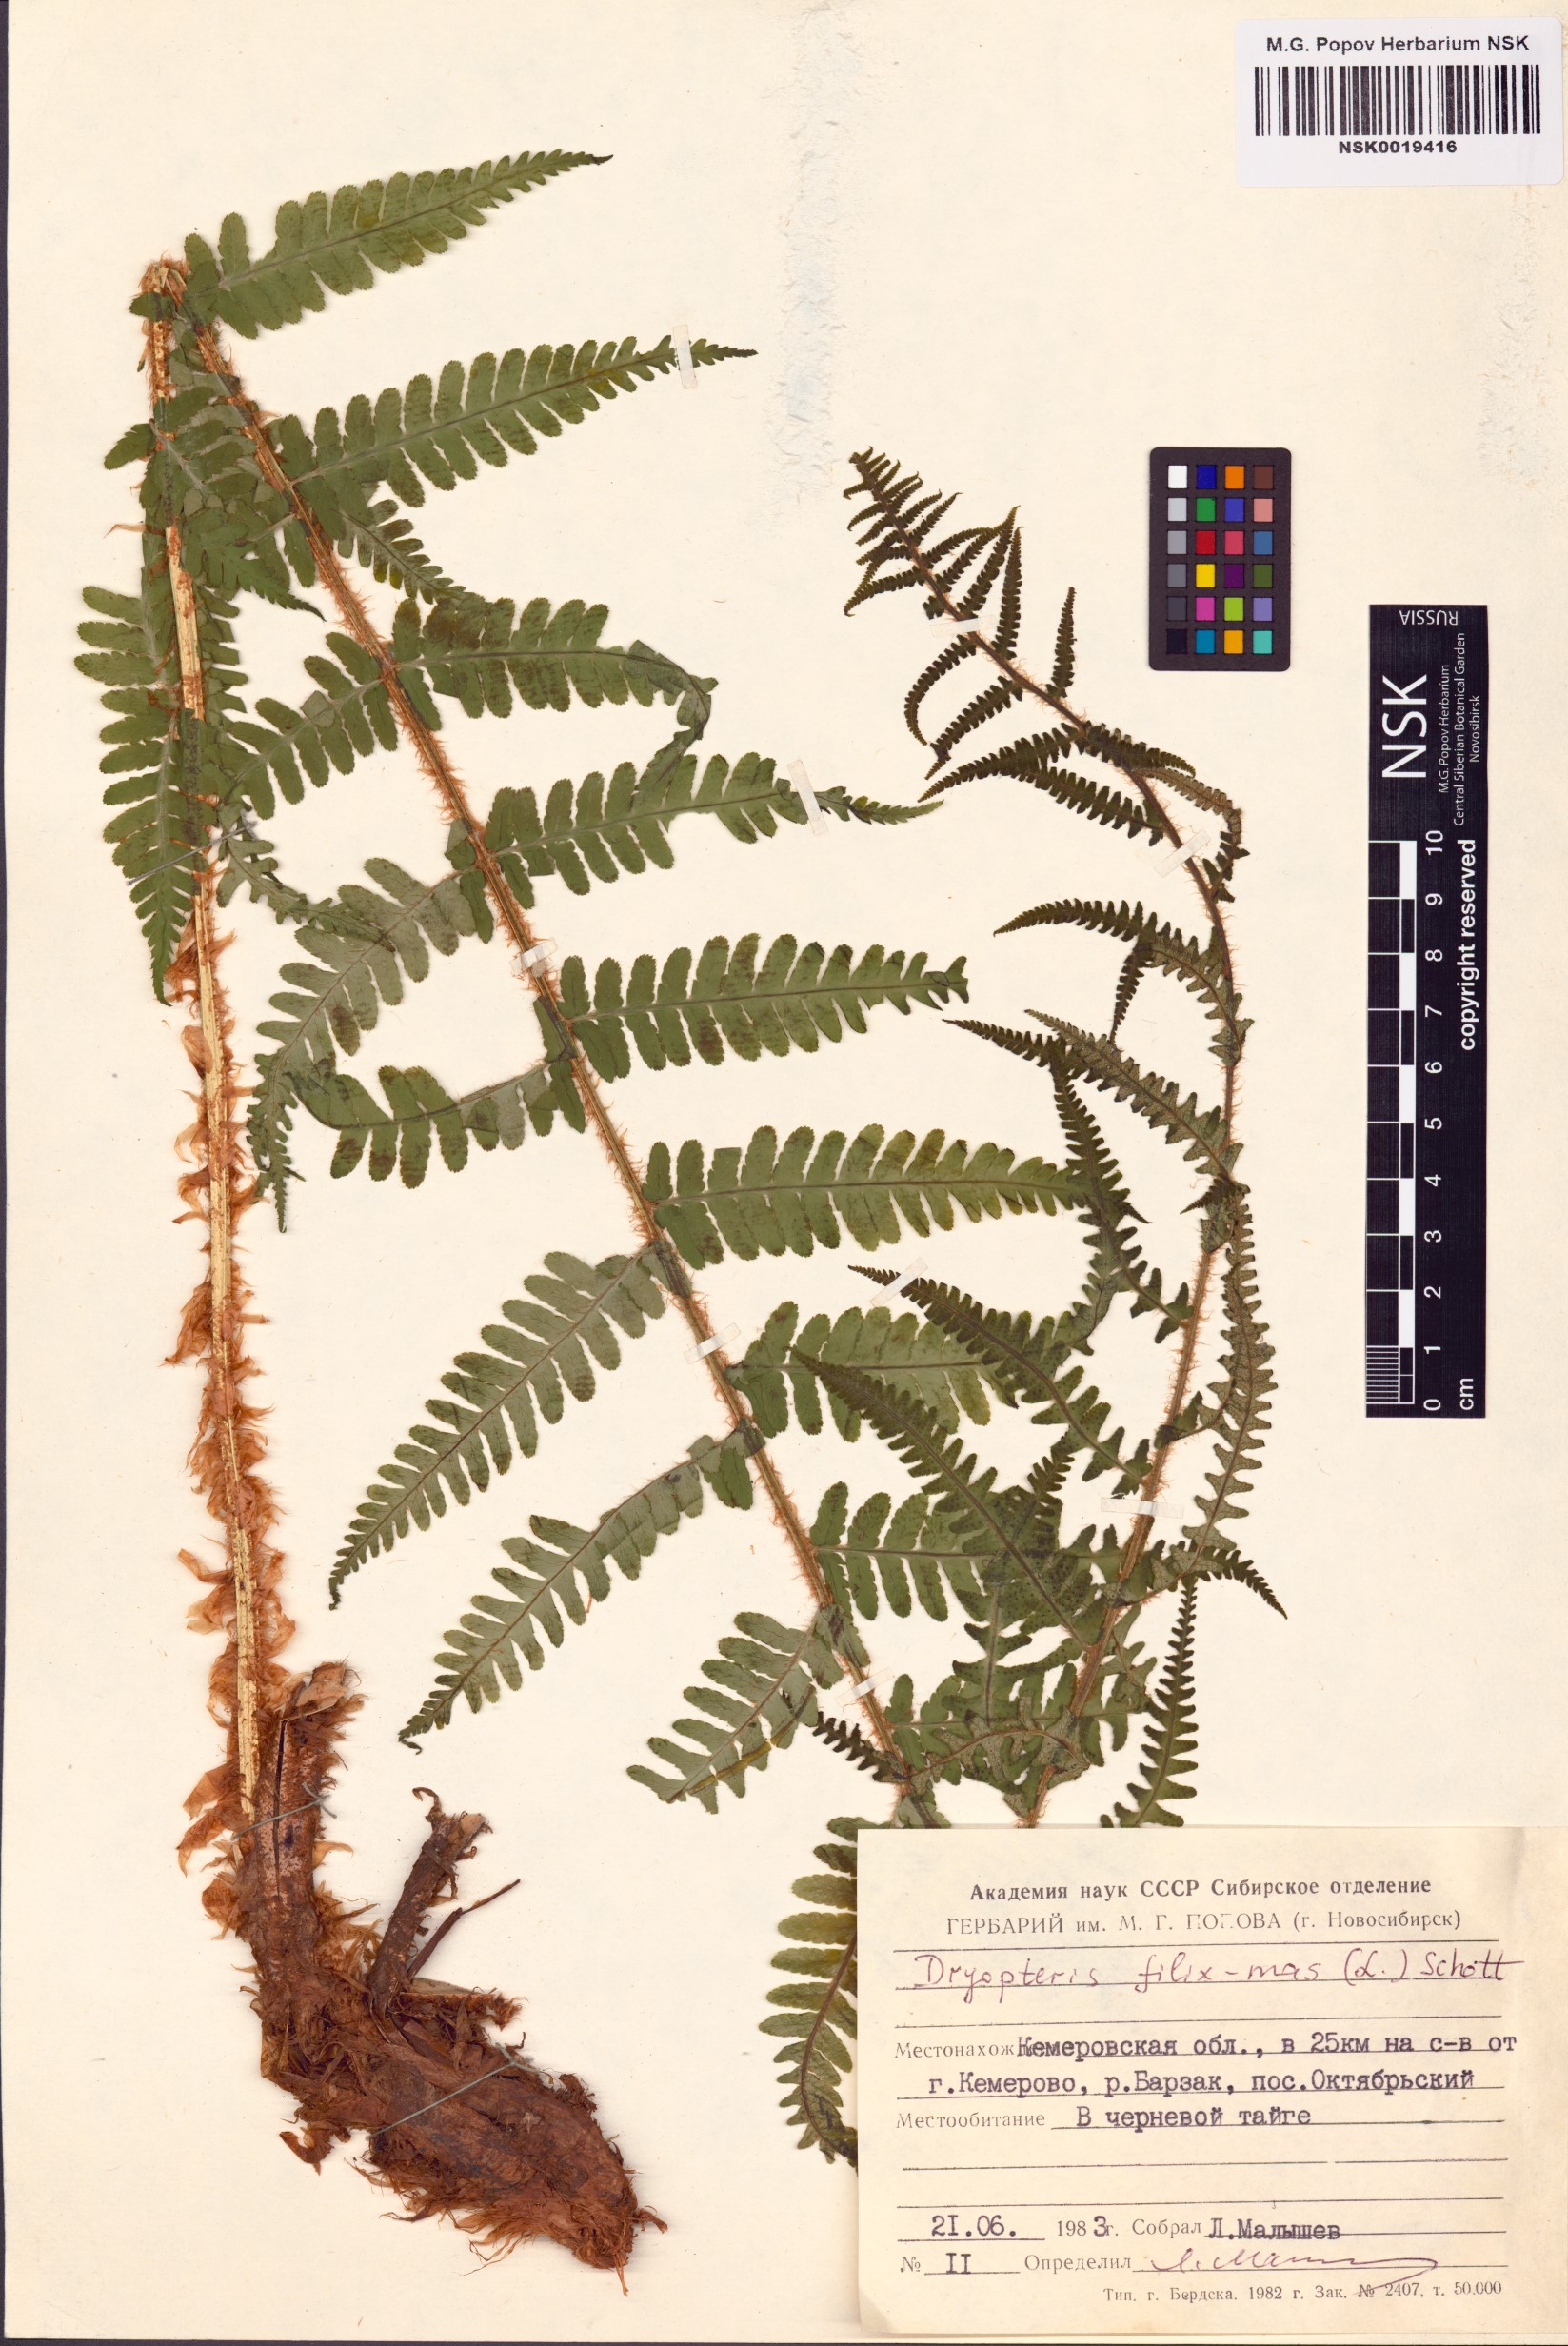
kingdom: Plantae
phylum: Tracheophyta
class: Polypodiopsida
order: Polypodiales
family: Dryopteridaceae
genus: Dryopteris
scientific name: Dryopteris filix-mas
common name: Male fern
